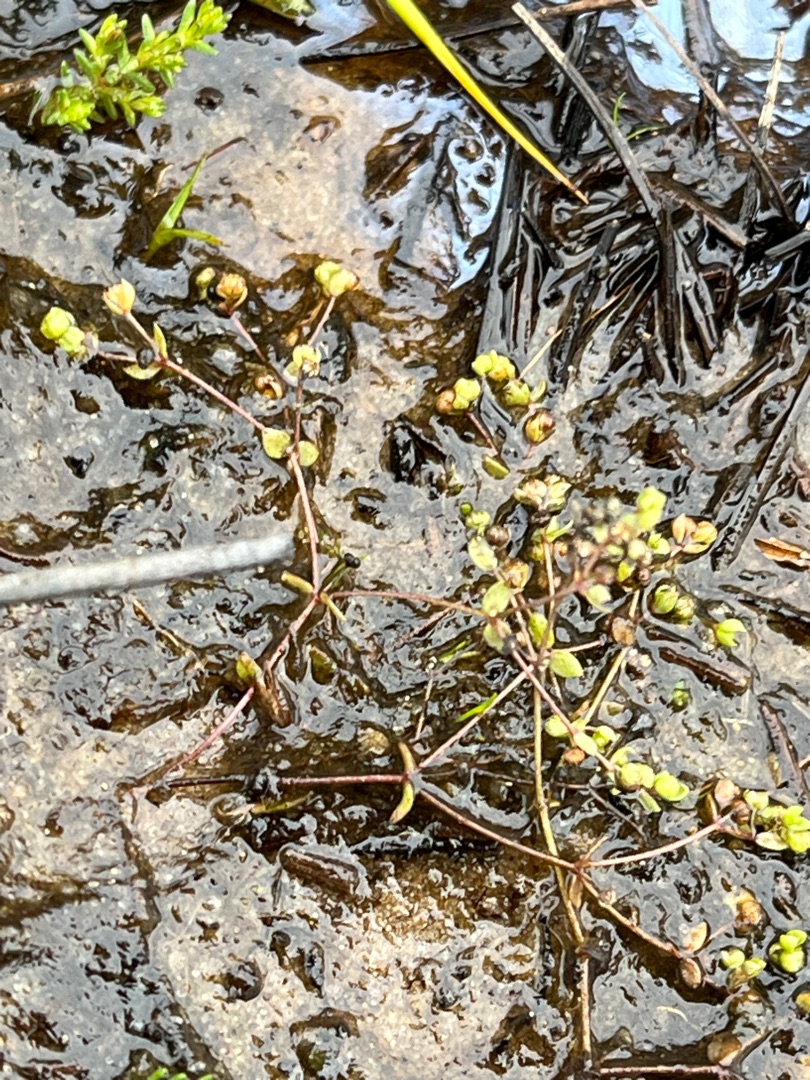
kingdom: Plantae
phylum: Tracheophyta
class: Magnoliopsida
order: Malpighiales
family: Linaceae
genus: Radiola
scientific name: Radiola linoides
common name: Tusindfrø
